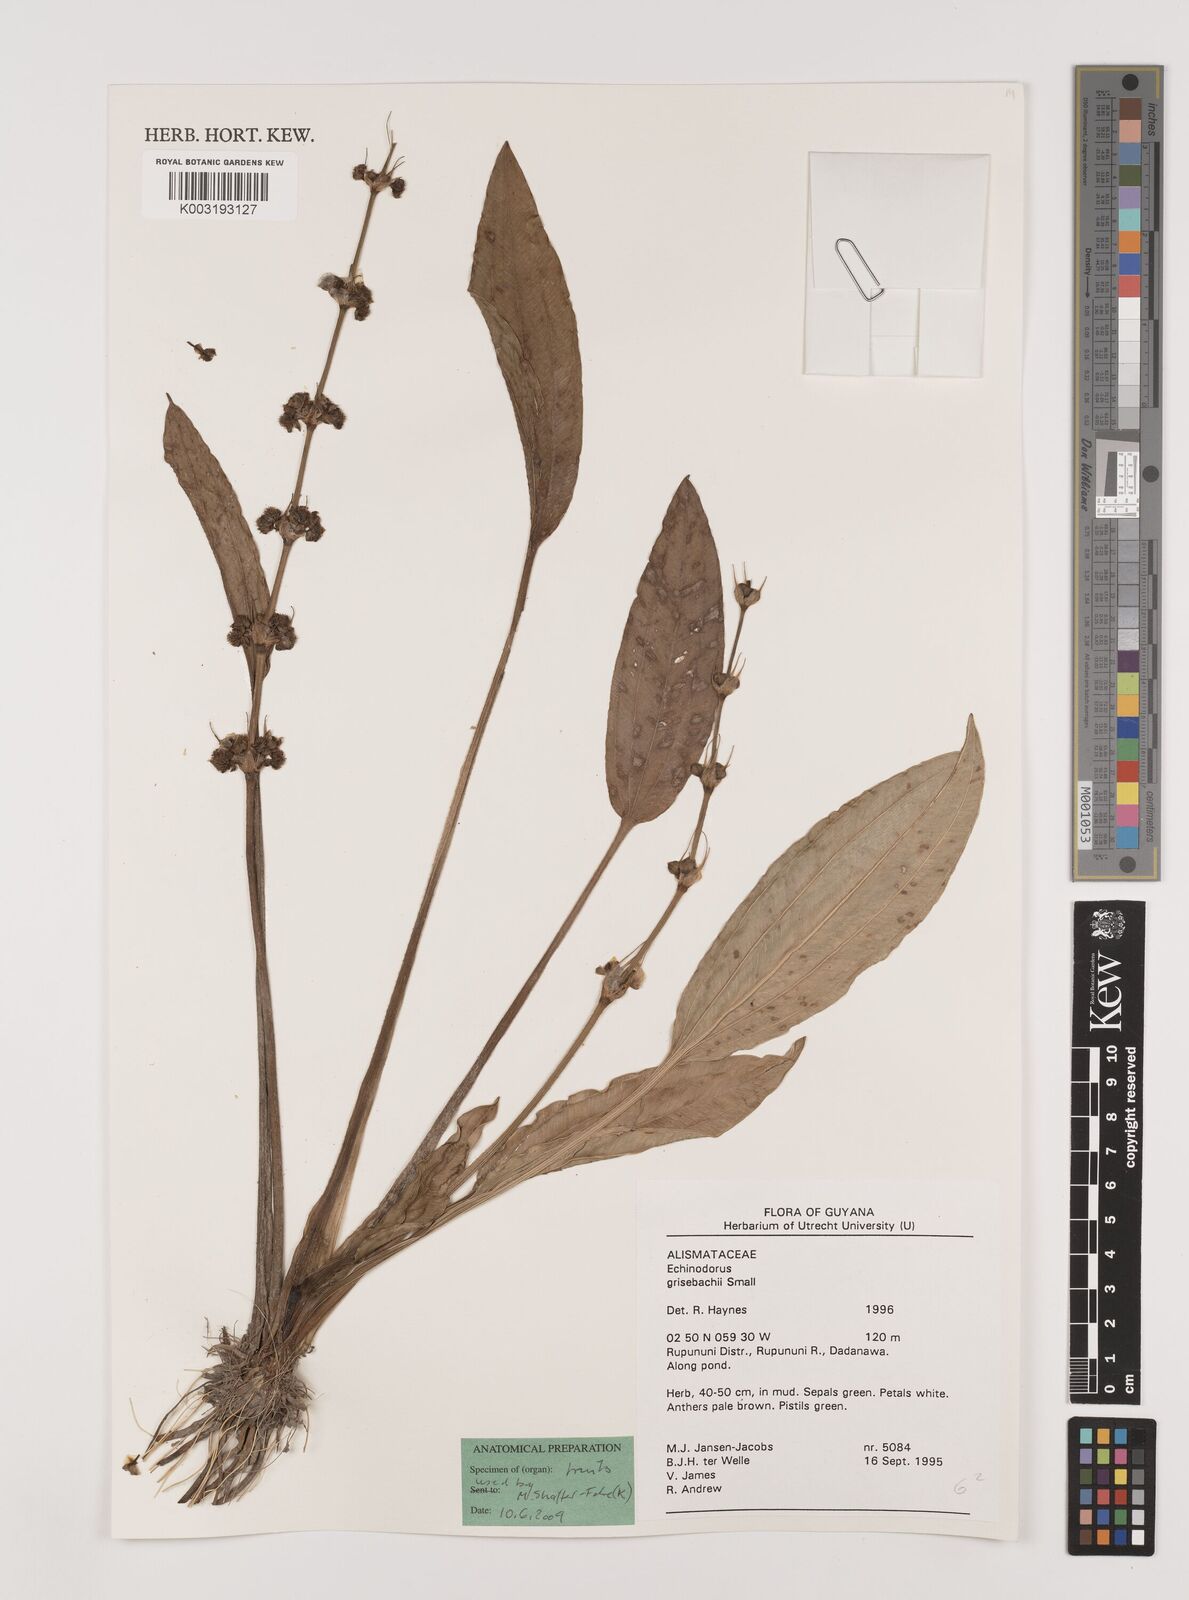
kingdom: Plantae
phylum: Tracheophyta
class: Liliopsida
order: Alismatales
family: Alismataceae
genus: Aquarius
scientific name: Aquarius grisebachii
